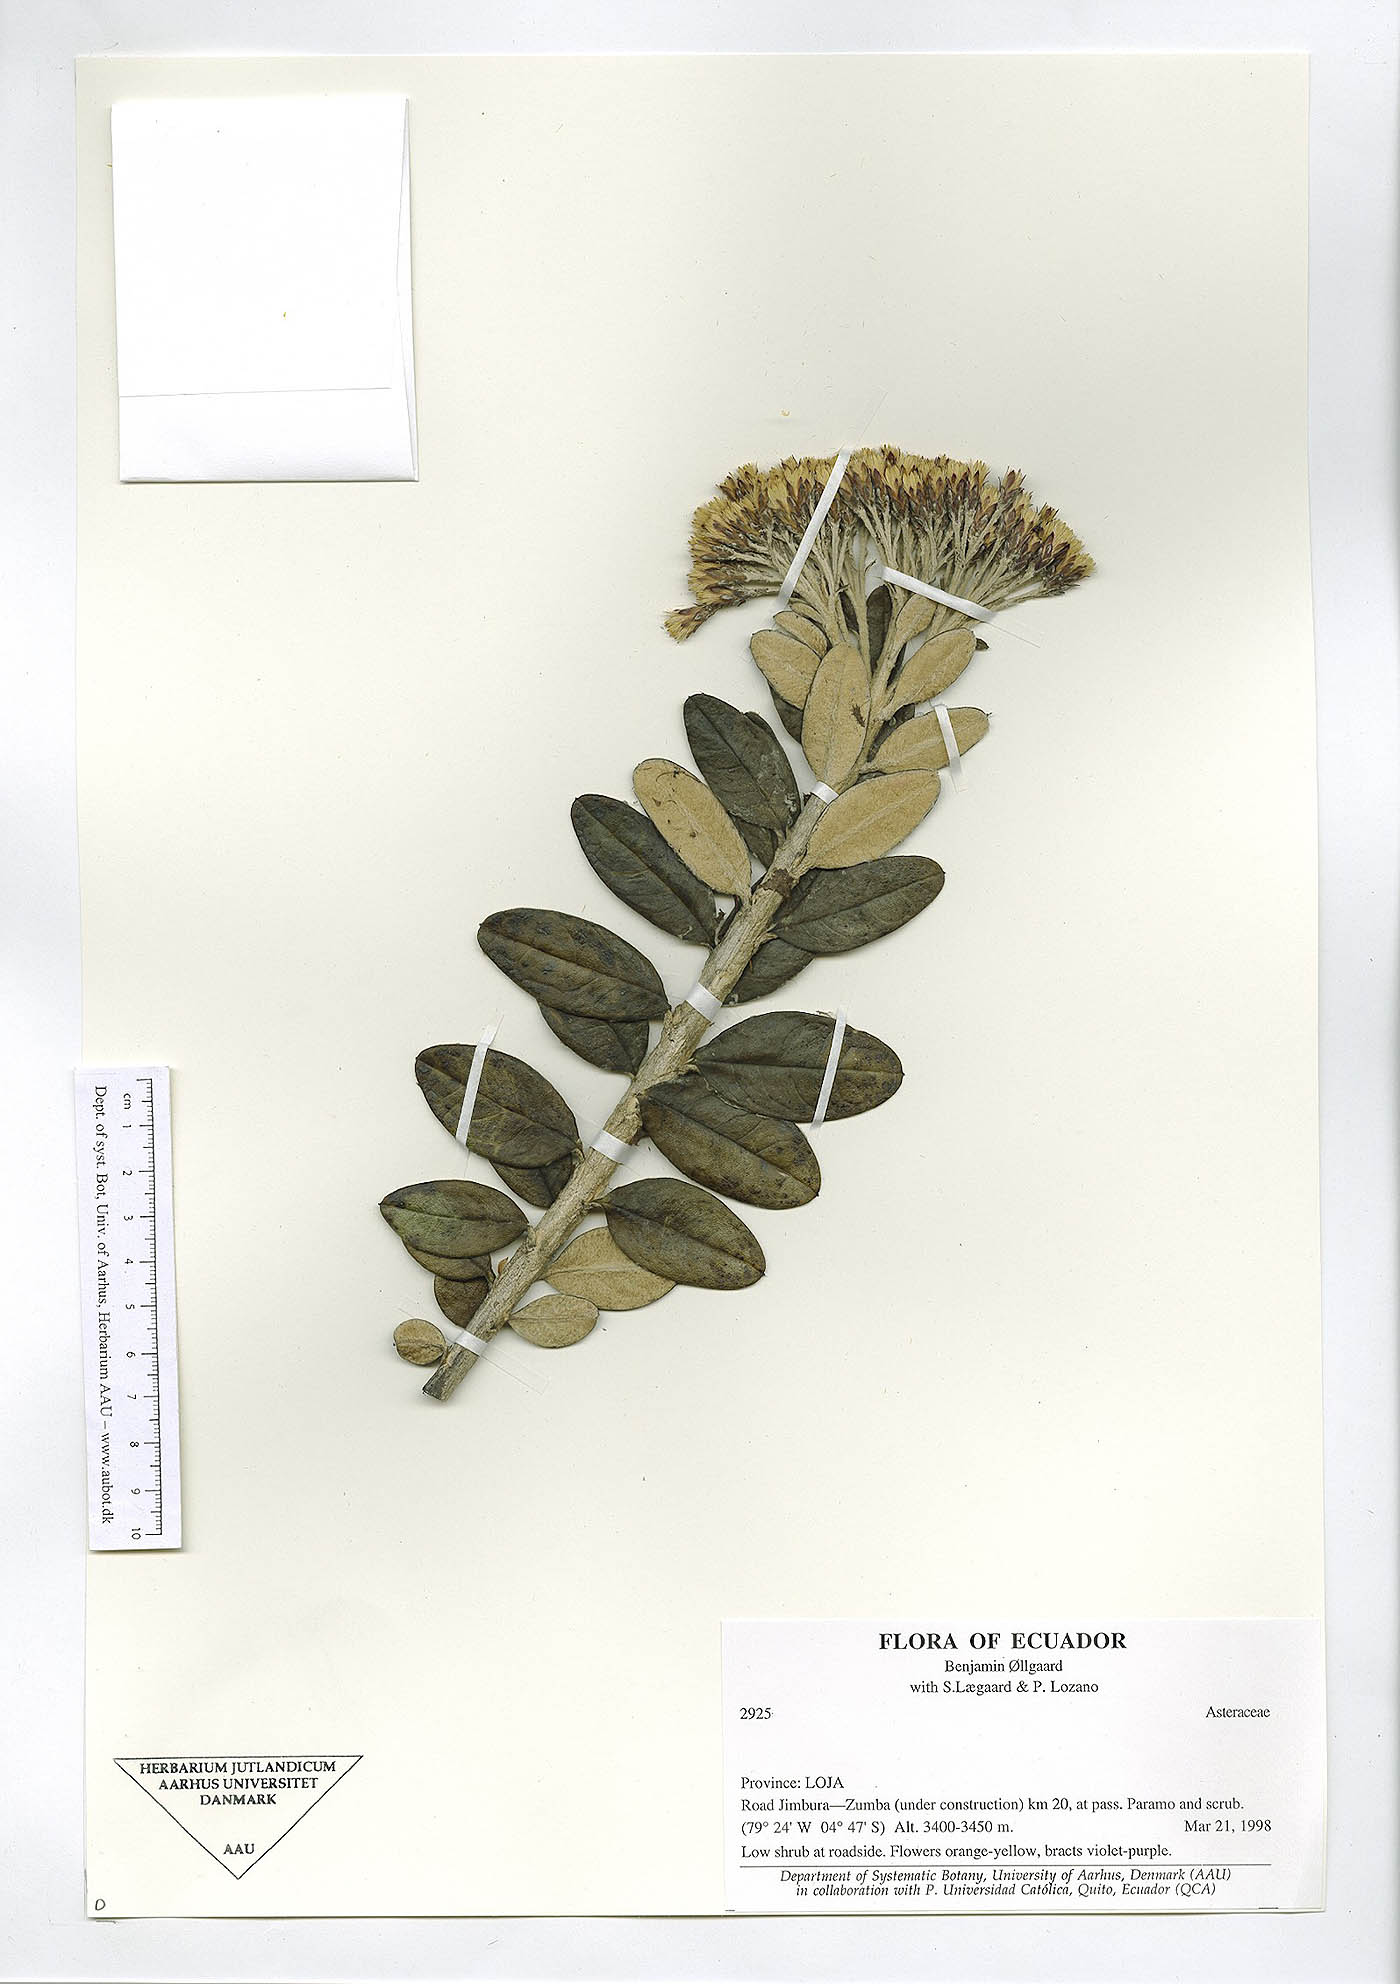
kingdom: Plantae
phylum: Tracheophyta
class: Magnoliopsida
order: Asterales
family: Asteraceae
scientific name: Asteraceae
